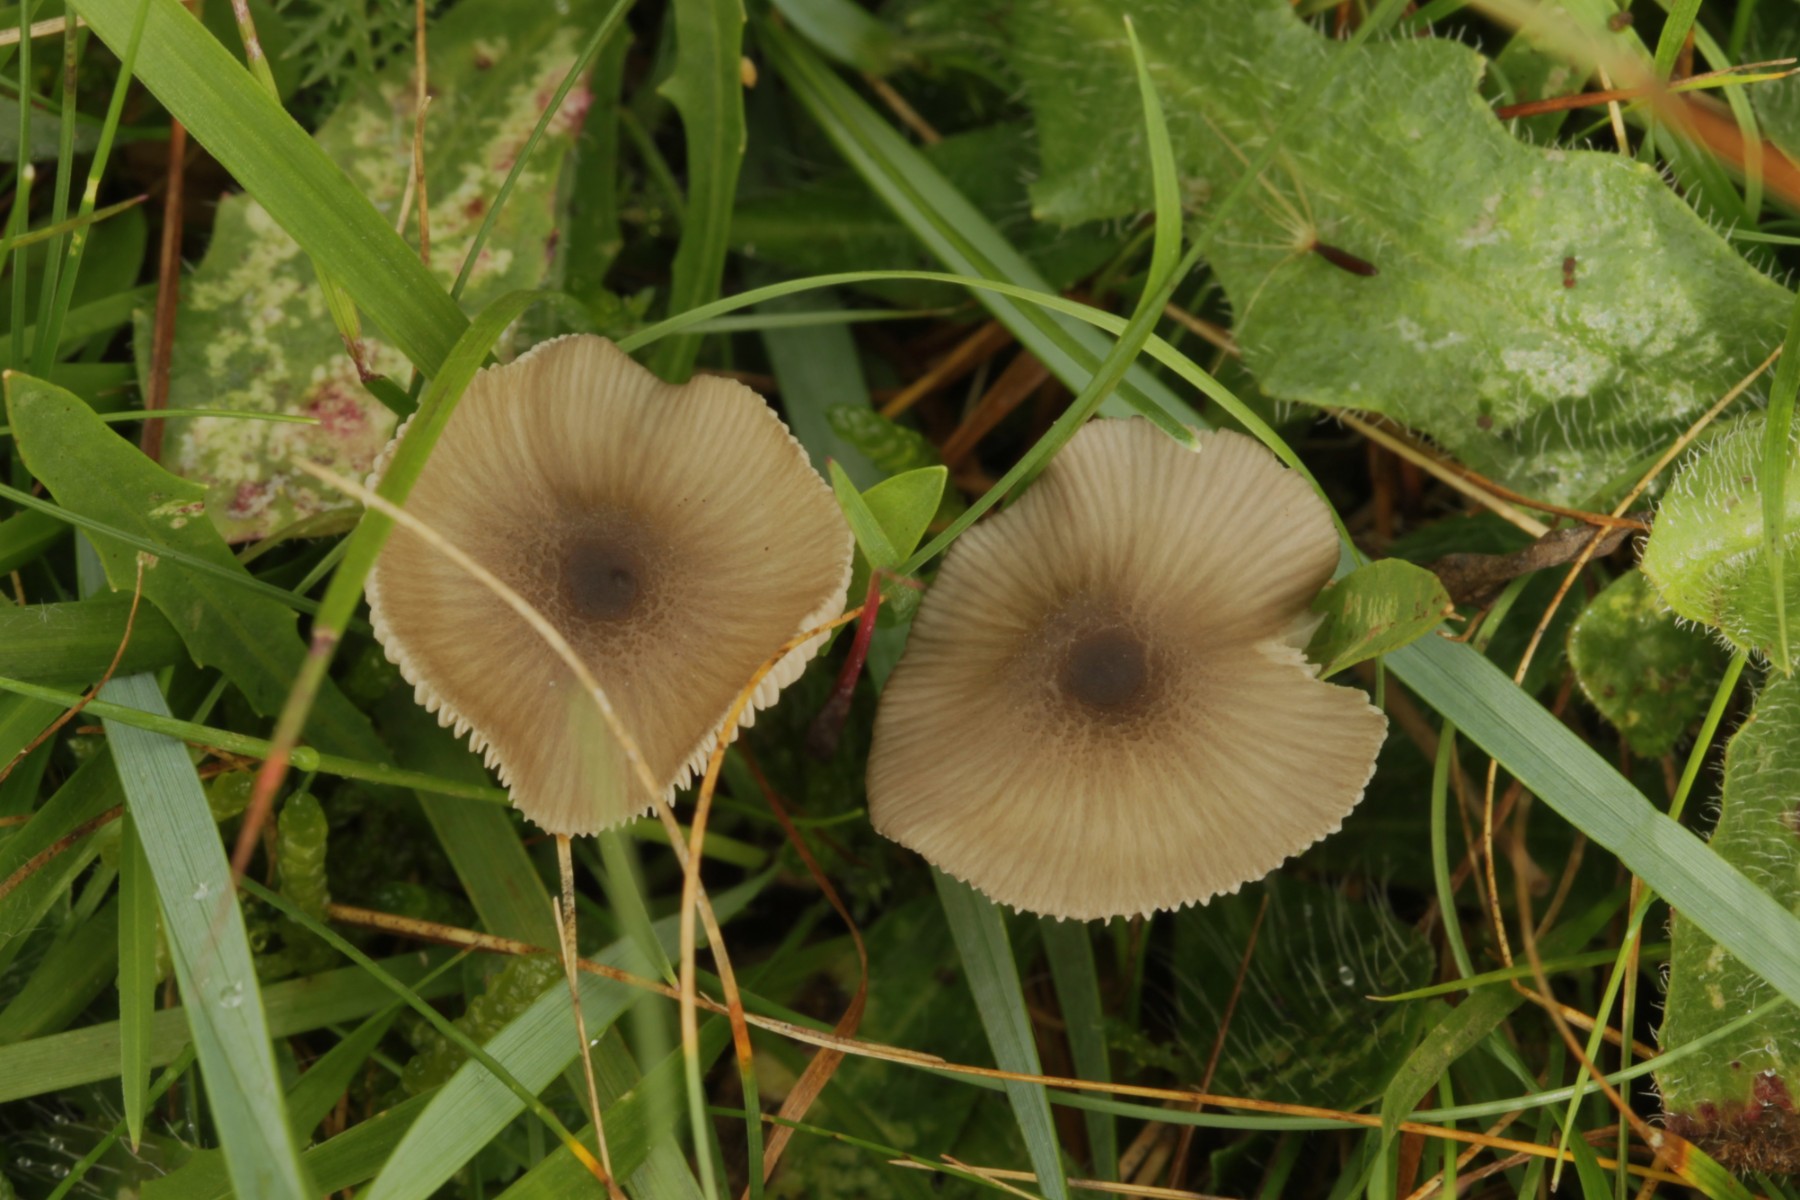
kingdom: Fungi
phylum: Basidiomycota
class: Agaricomycetes
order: Agaricales
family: Entolomataceae
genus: Entoloma
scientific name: Entoloma exile
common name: rødplettet rødblad
